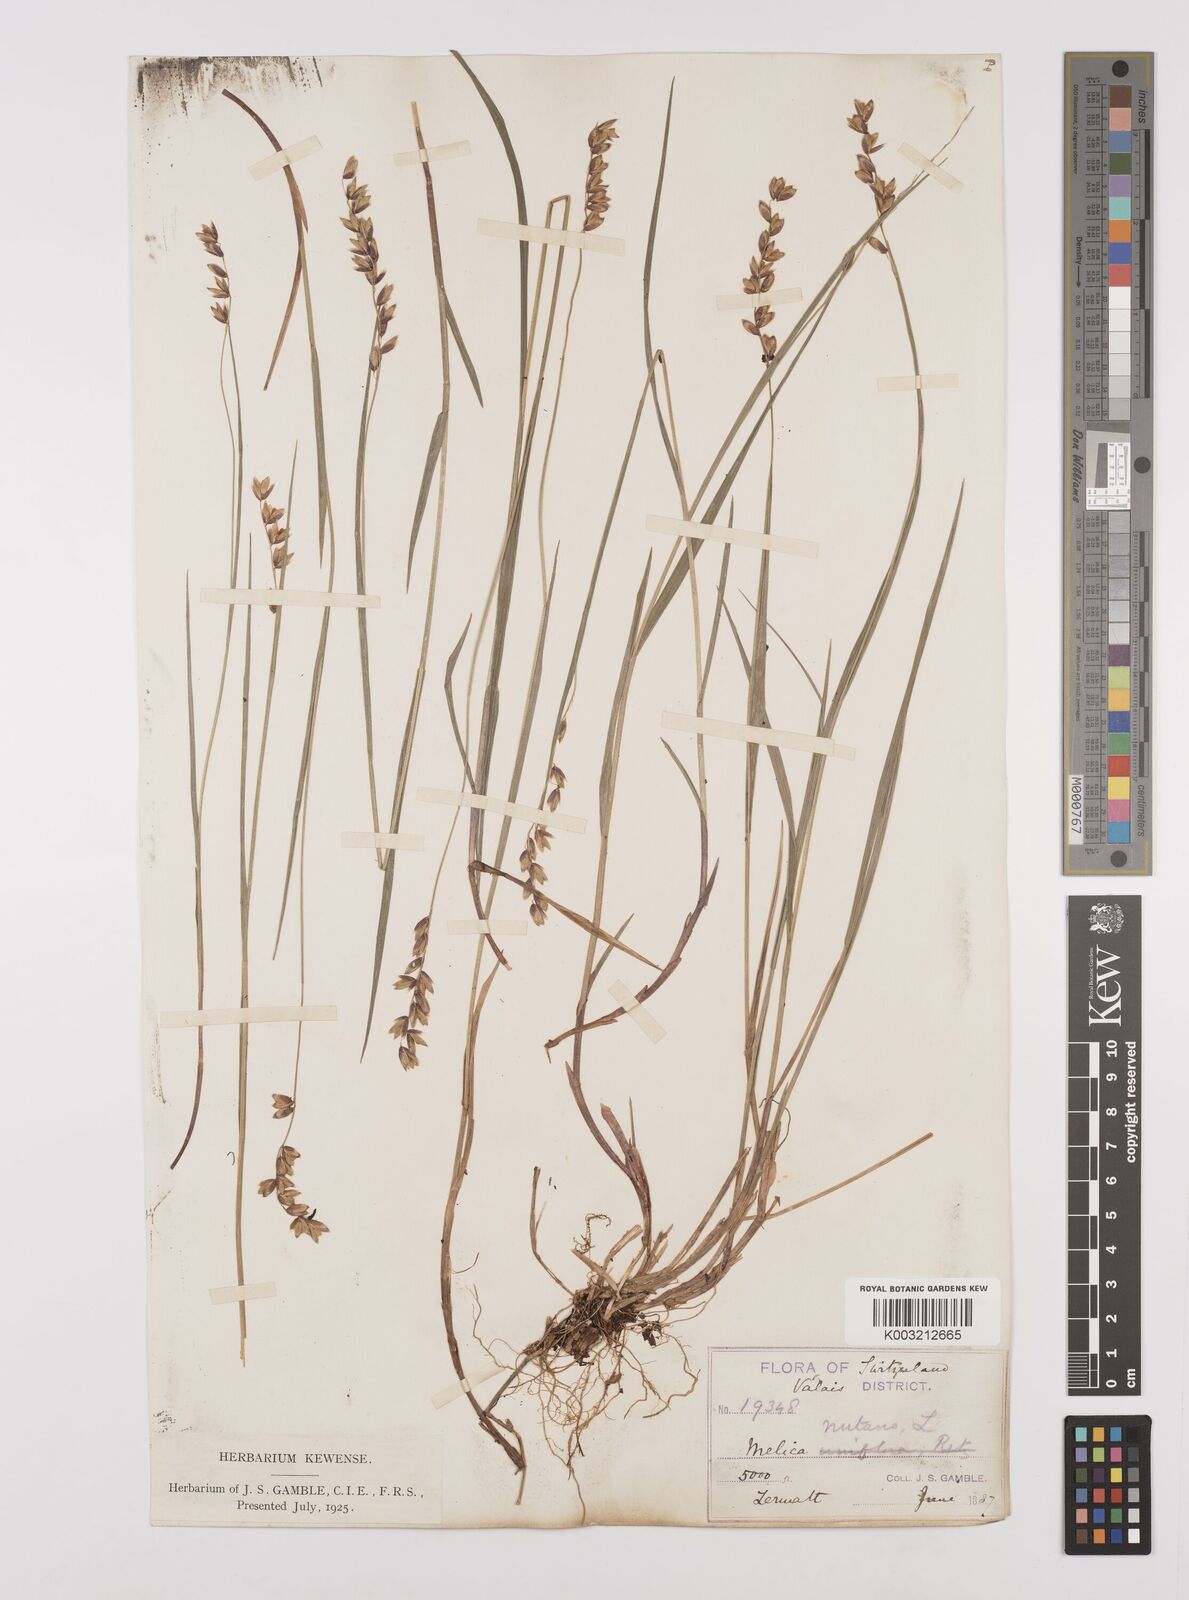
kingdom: Plantae
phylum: Tracheophyta
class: Liliopsida
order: Poales
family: Poaceae
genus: Melica
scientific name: Melica
